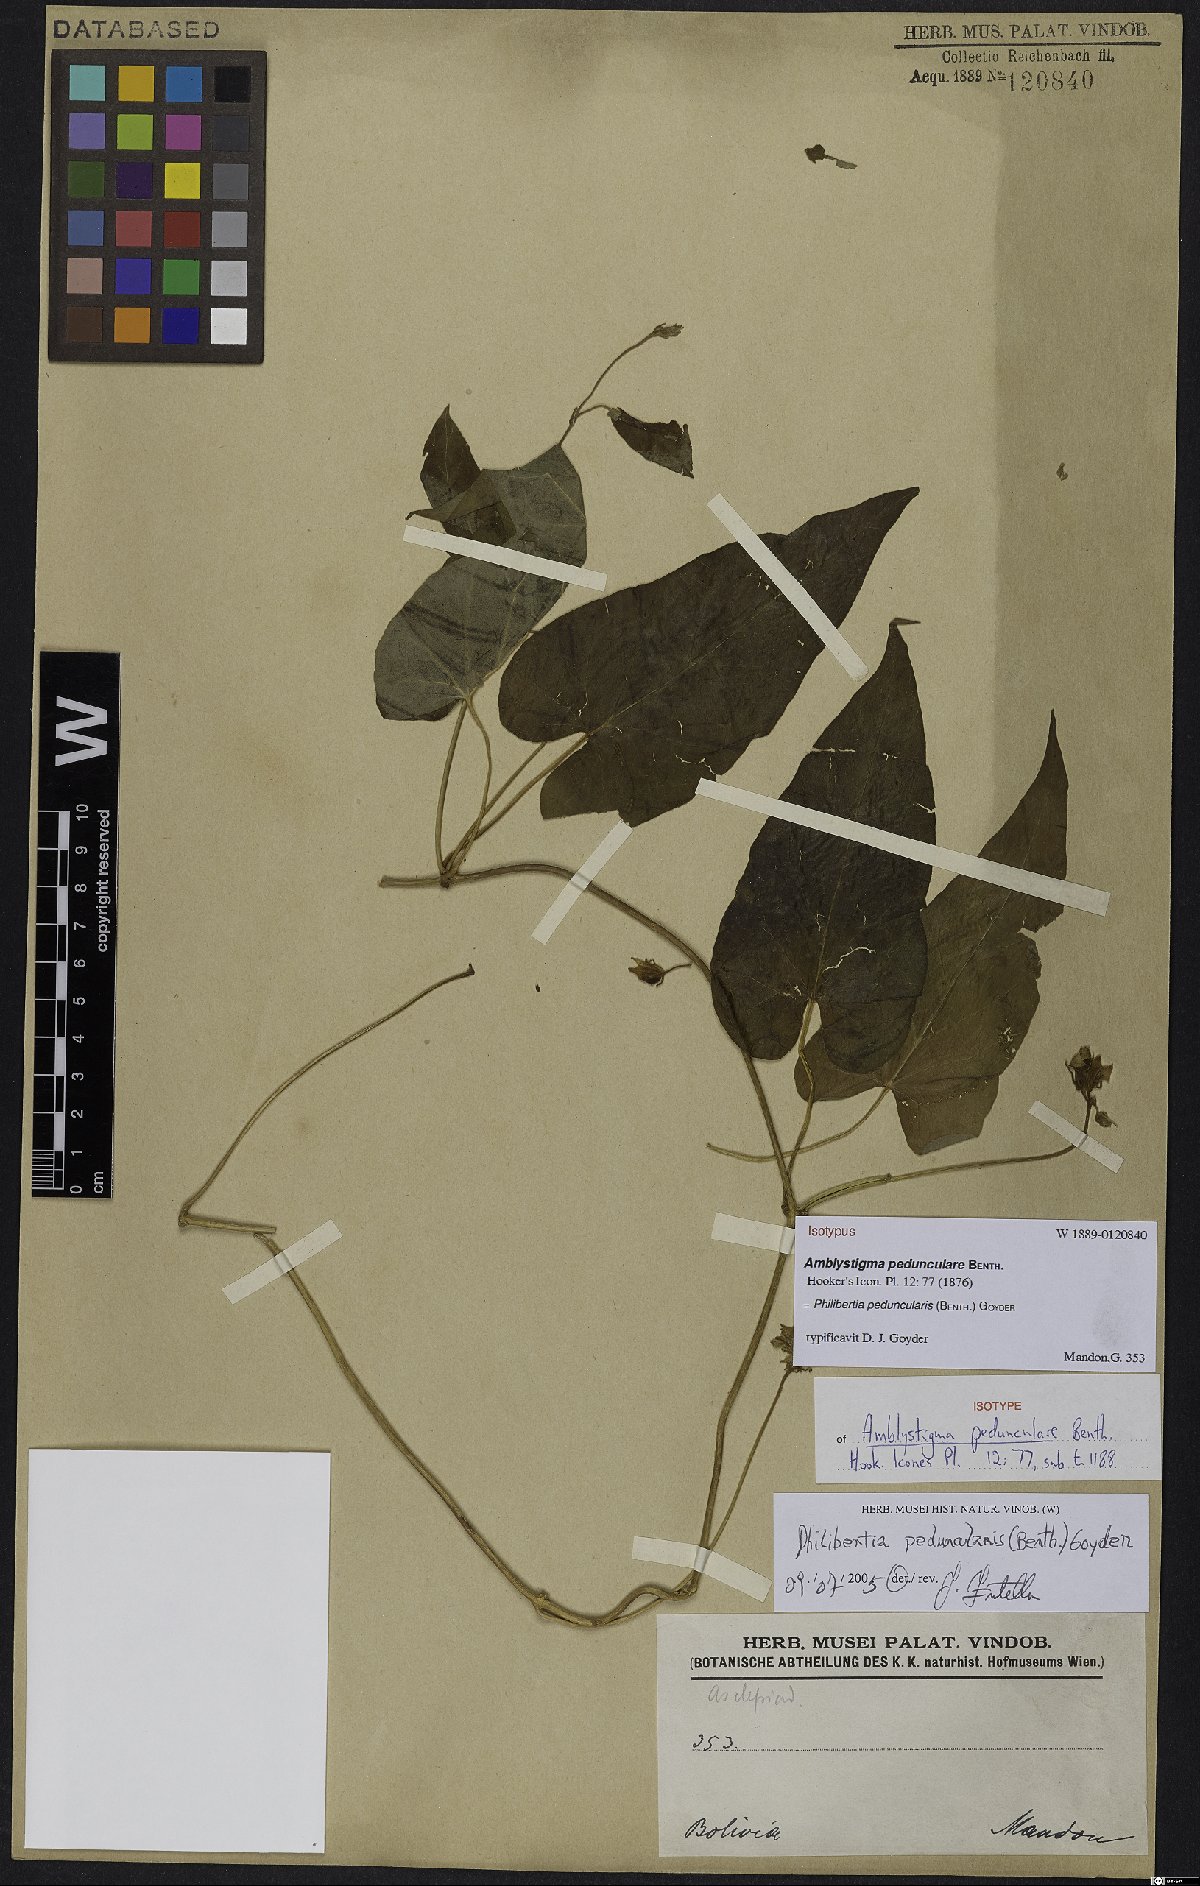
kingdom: Plantae
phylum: Tracheophyta
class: Magnoliopsida
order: Gentianales
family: Apocynaceae
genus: Philibertia
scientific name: Philibertia peduncularis
